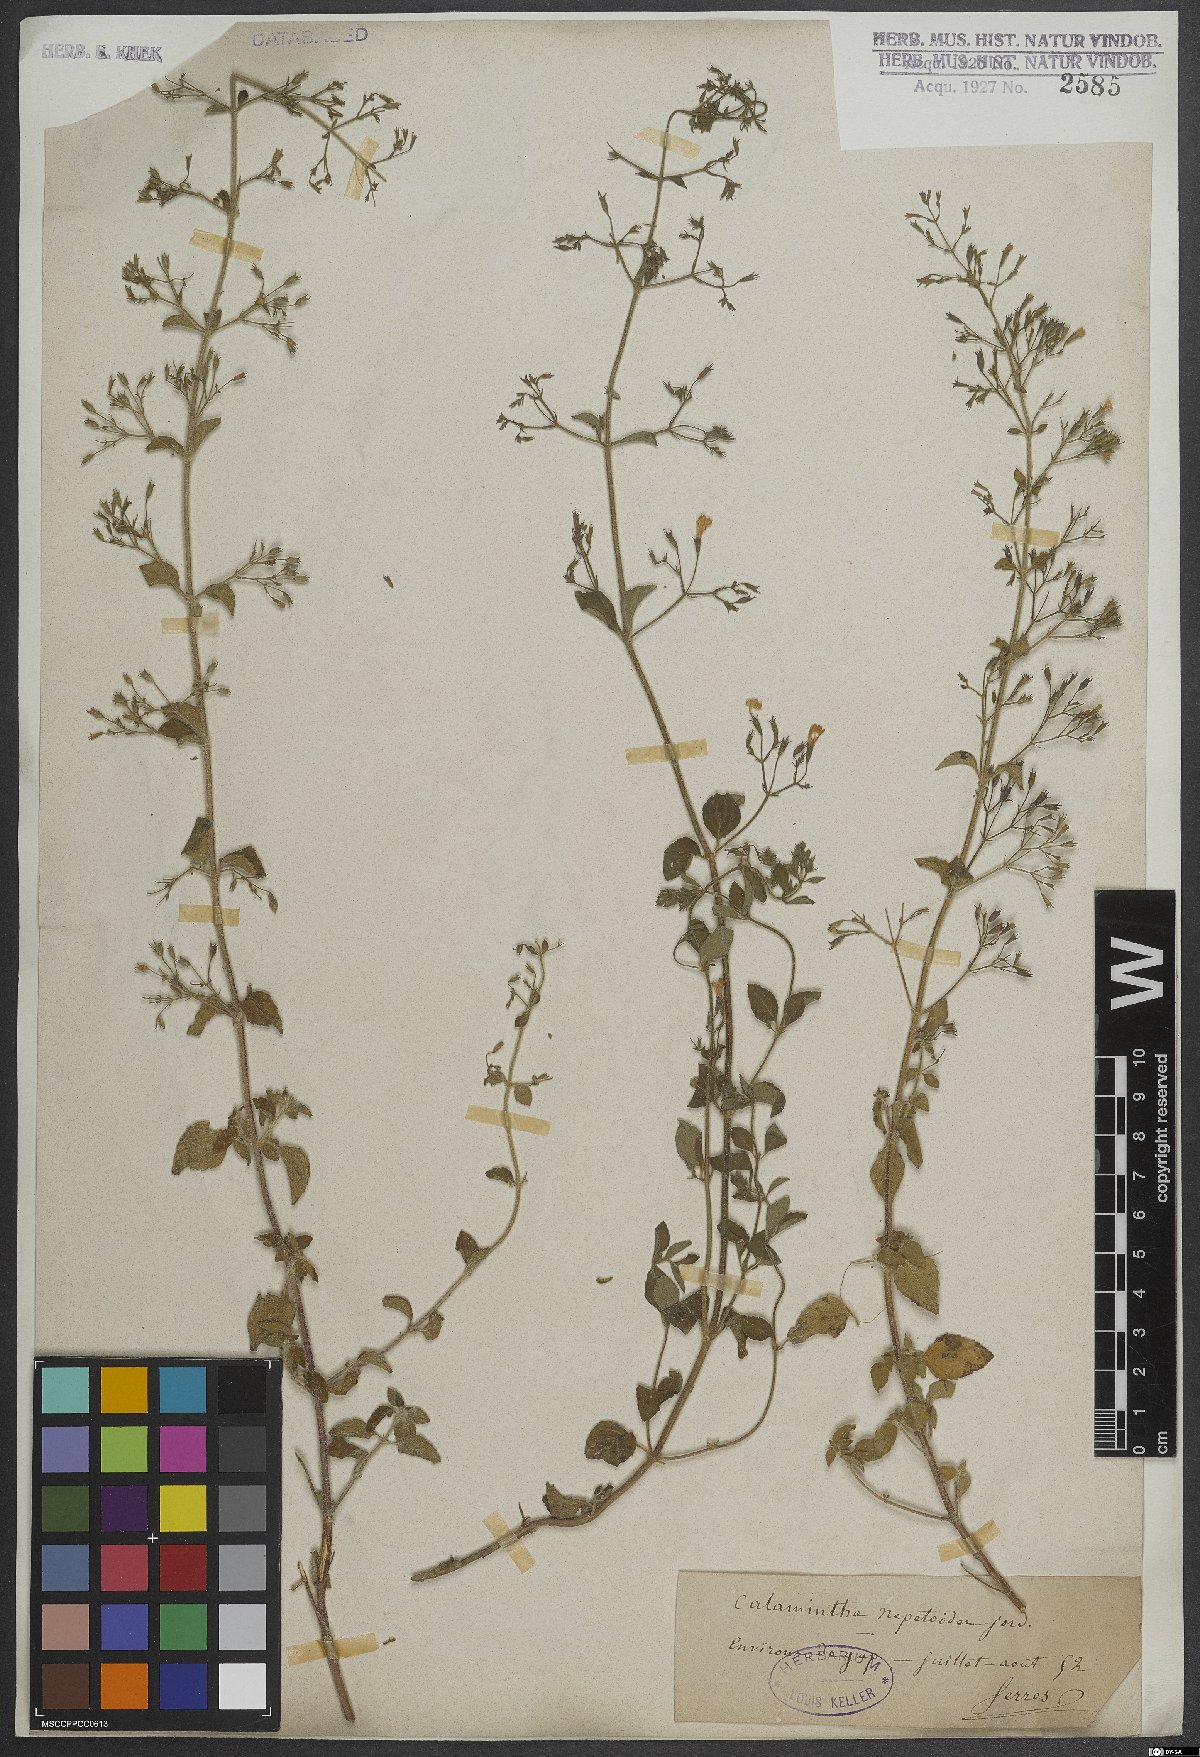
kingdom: Plantae
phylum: Tracheophyta
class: Magnoliopsida
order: Lamiales
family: Lamiaceae
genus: Clinopodium
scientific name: Clinopodium nepeta
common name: Lesser calamint
